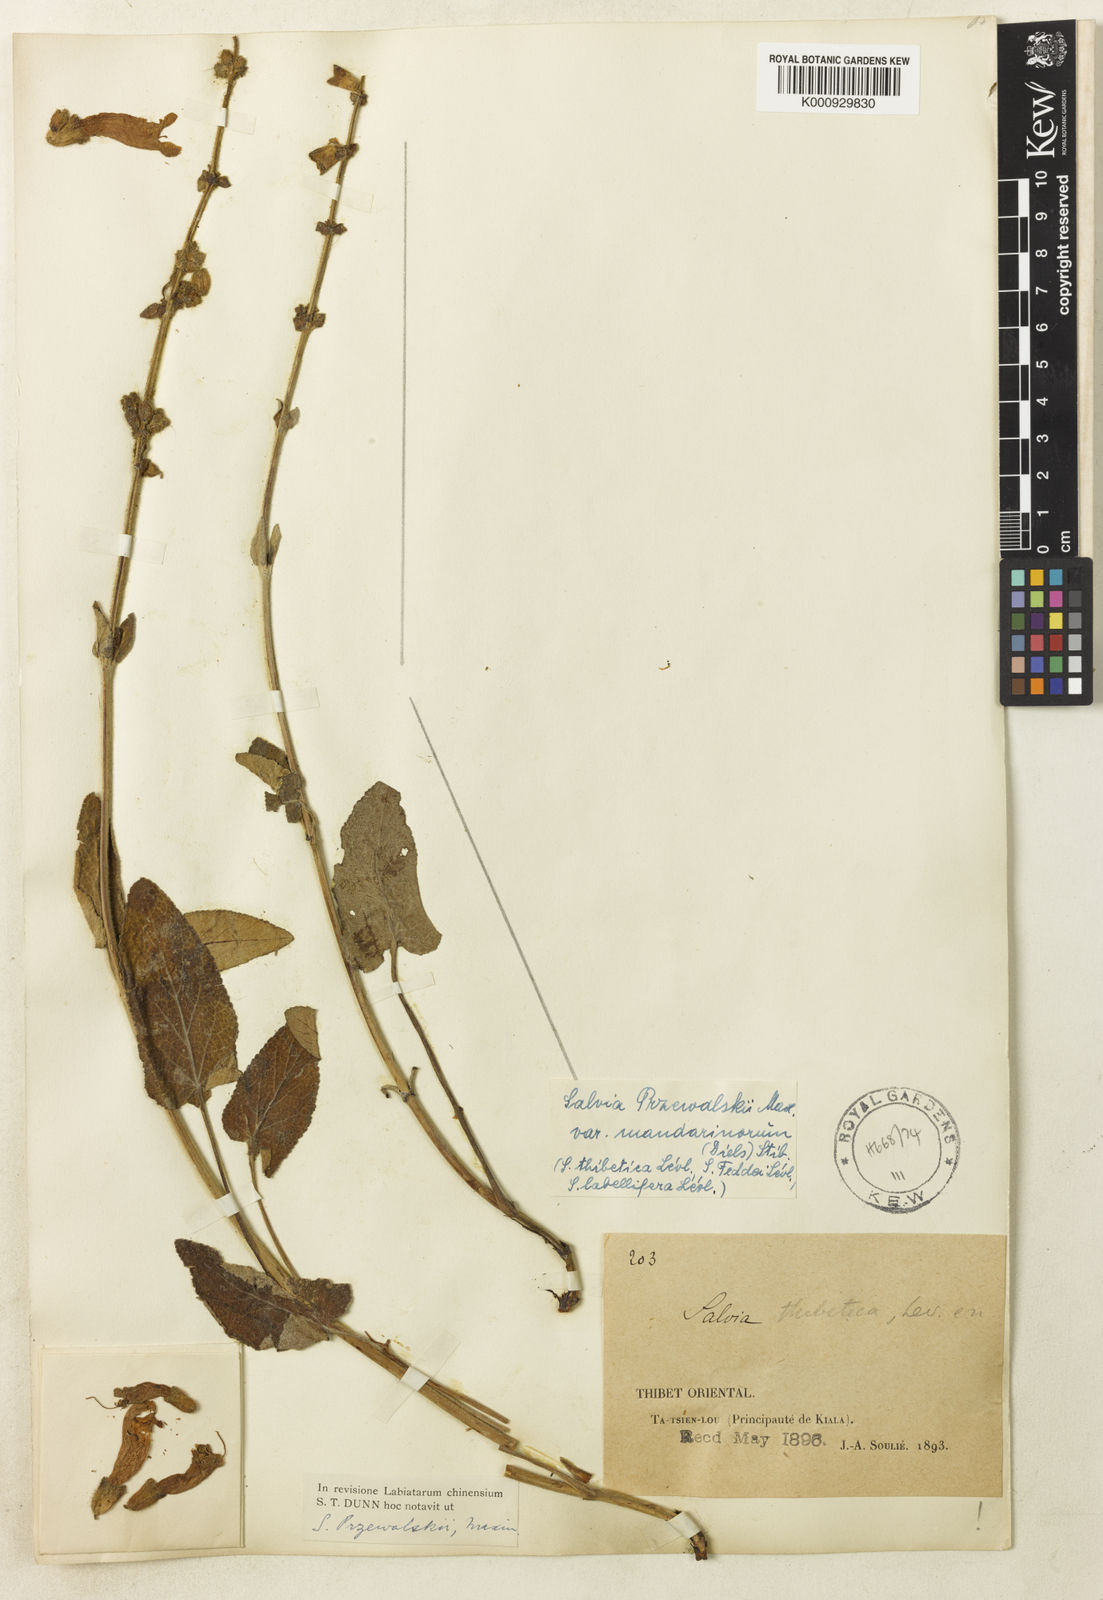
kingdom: Plantae
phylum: Tracheophyta
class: Magnoliopsida
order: Lamiales
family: Lamiaceae
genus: Salvia
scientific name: Salvia przewalskii
